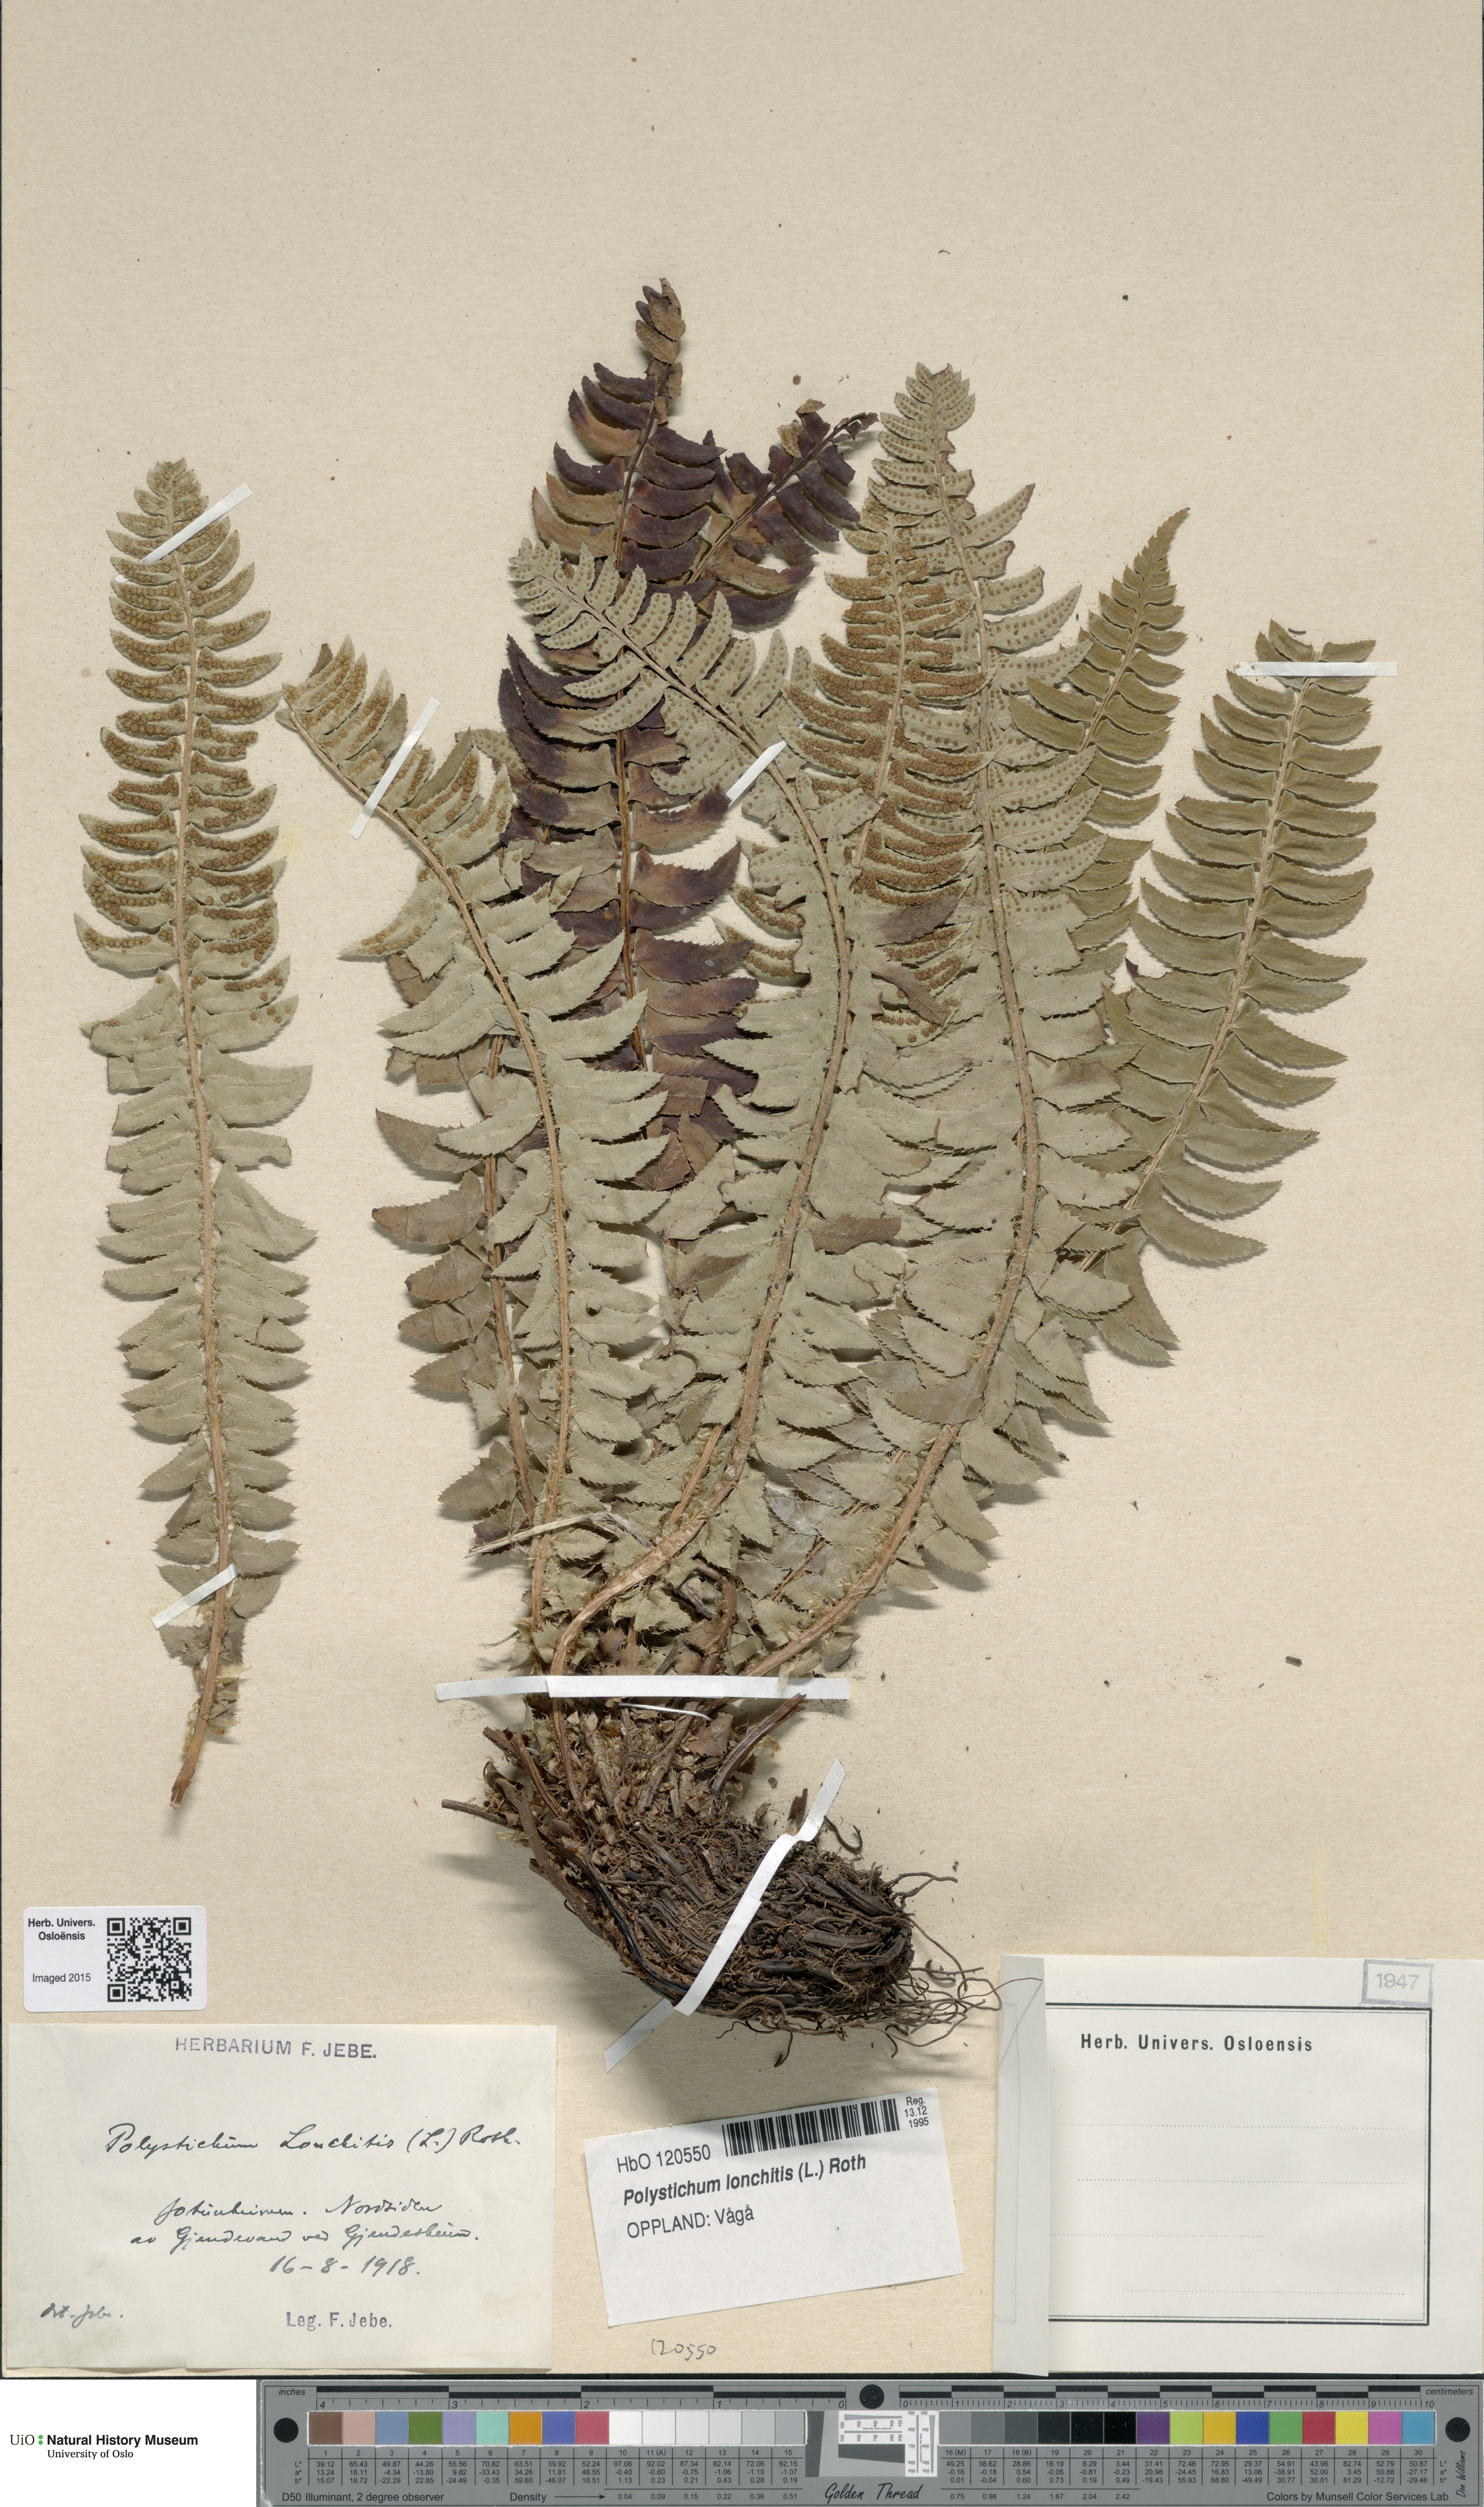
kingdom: Plantae
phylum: Tracheophyta
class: Polypodiopsida
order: Polypodiales
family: Dryopteridaceae
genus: Polystichum
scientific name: Polystichum lonchitis
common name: Holly fern
